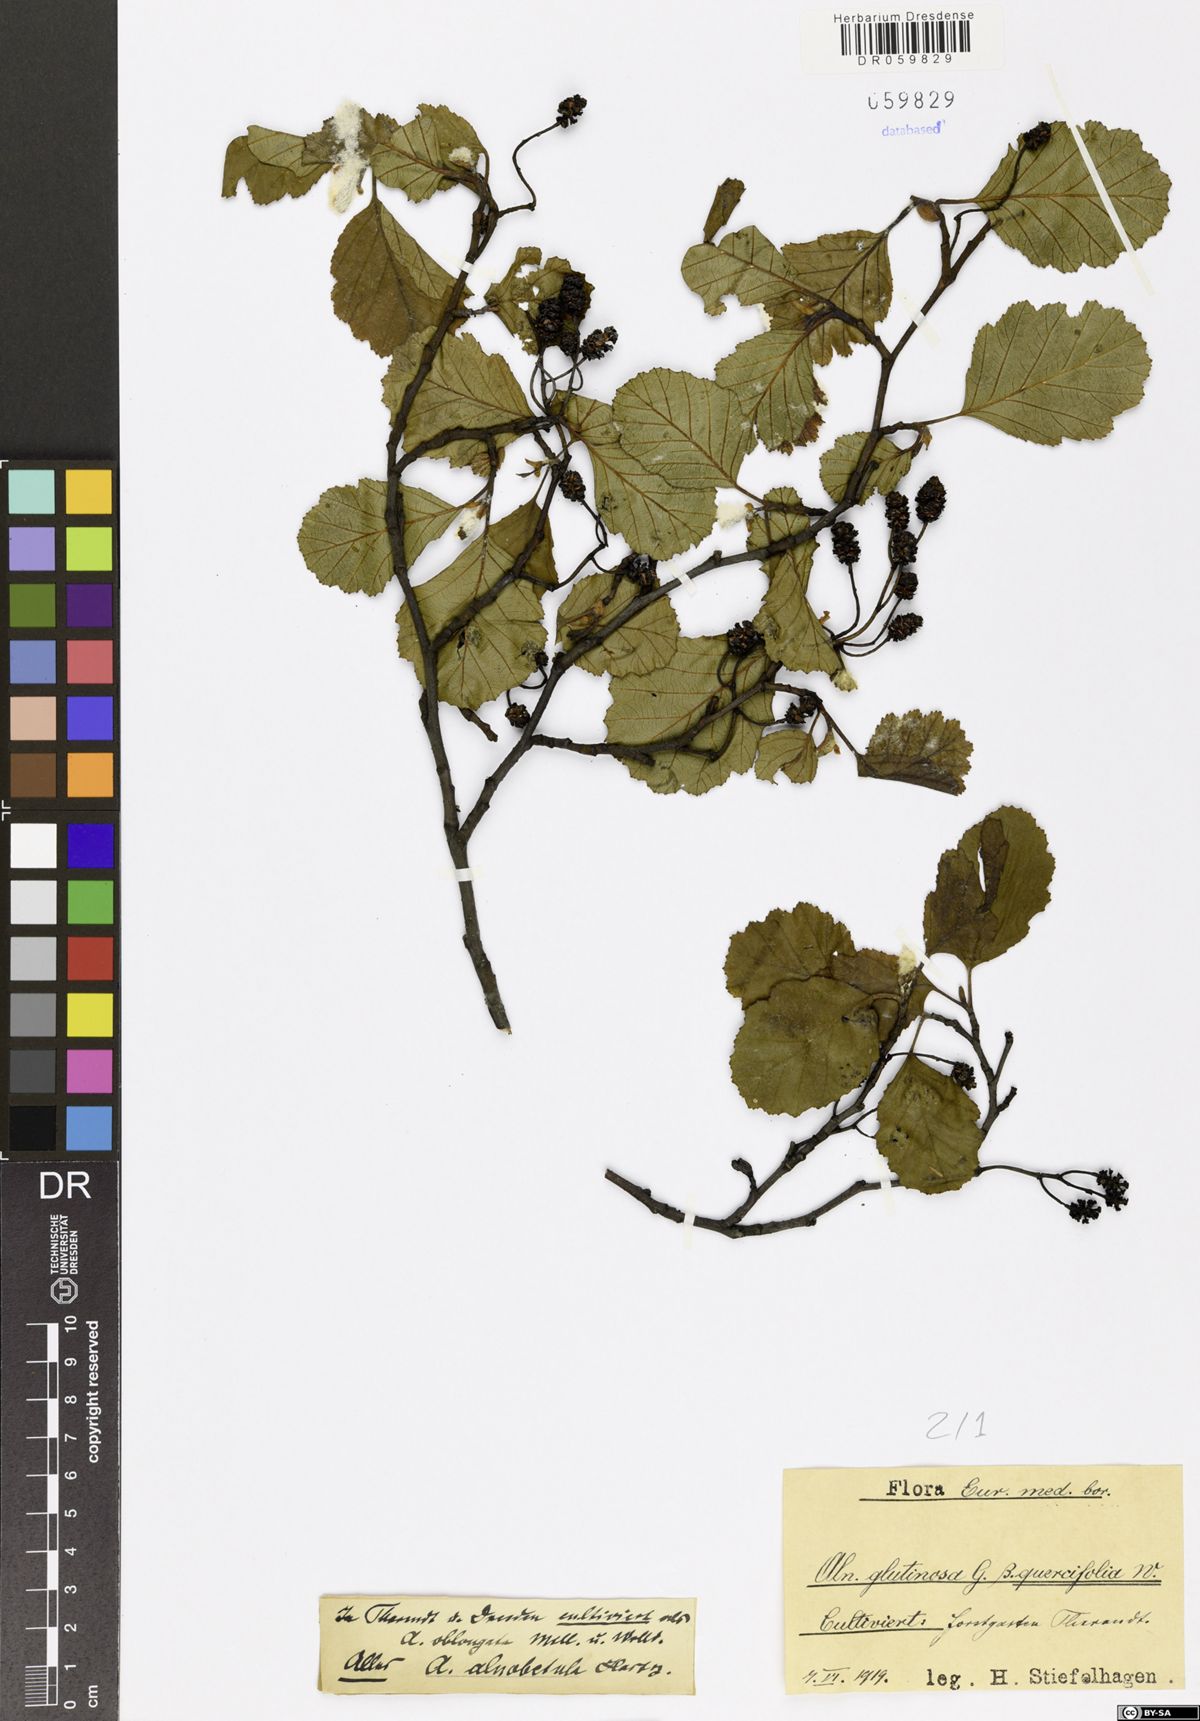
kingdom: Plantae
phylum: Tracheophyta
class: Magnoliopsida
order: Fagales
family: Betulaceae
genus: Alnus
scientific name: Alnus alnobetula
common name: Green alder
